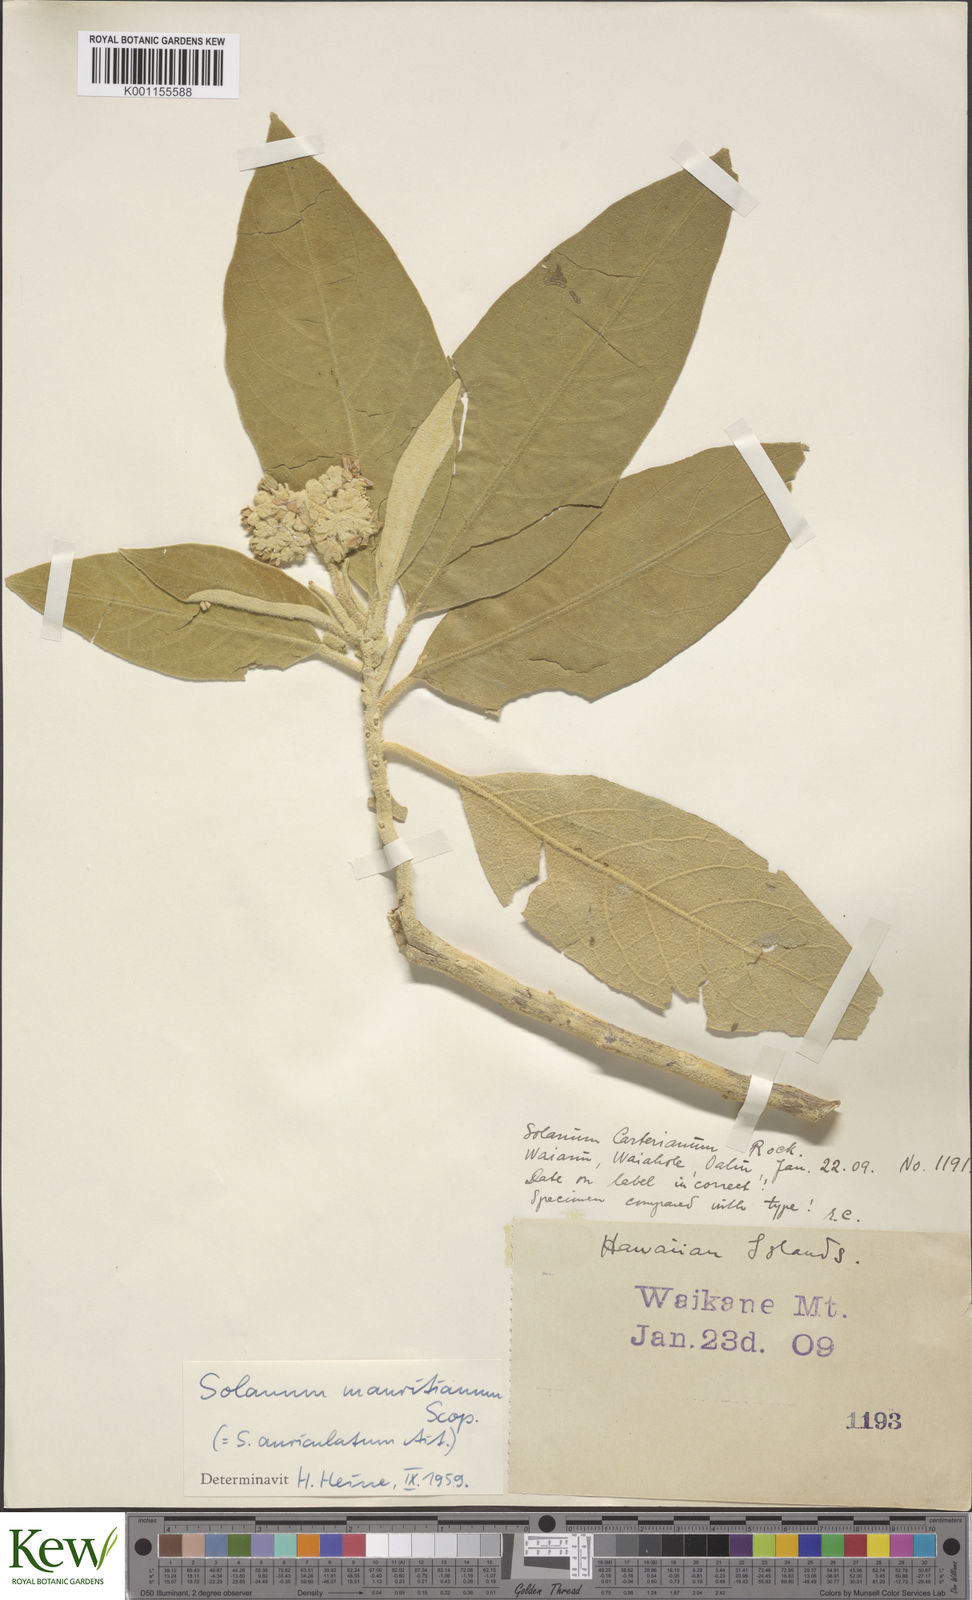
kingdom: Plantae
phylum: Tracheophyta
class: Magnoliopsida
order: Solanales
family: Solanaceae
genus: Solanum
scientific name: Solanum mauritianum
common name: Earleaf nightshade
